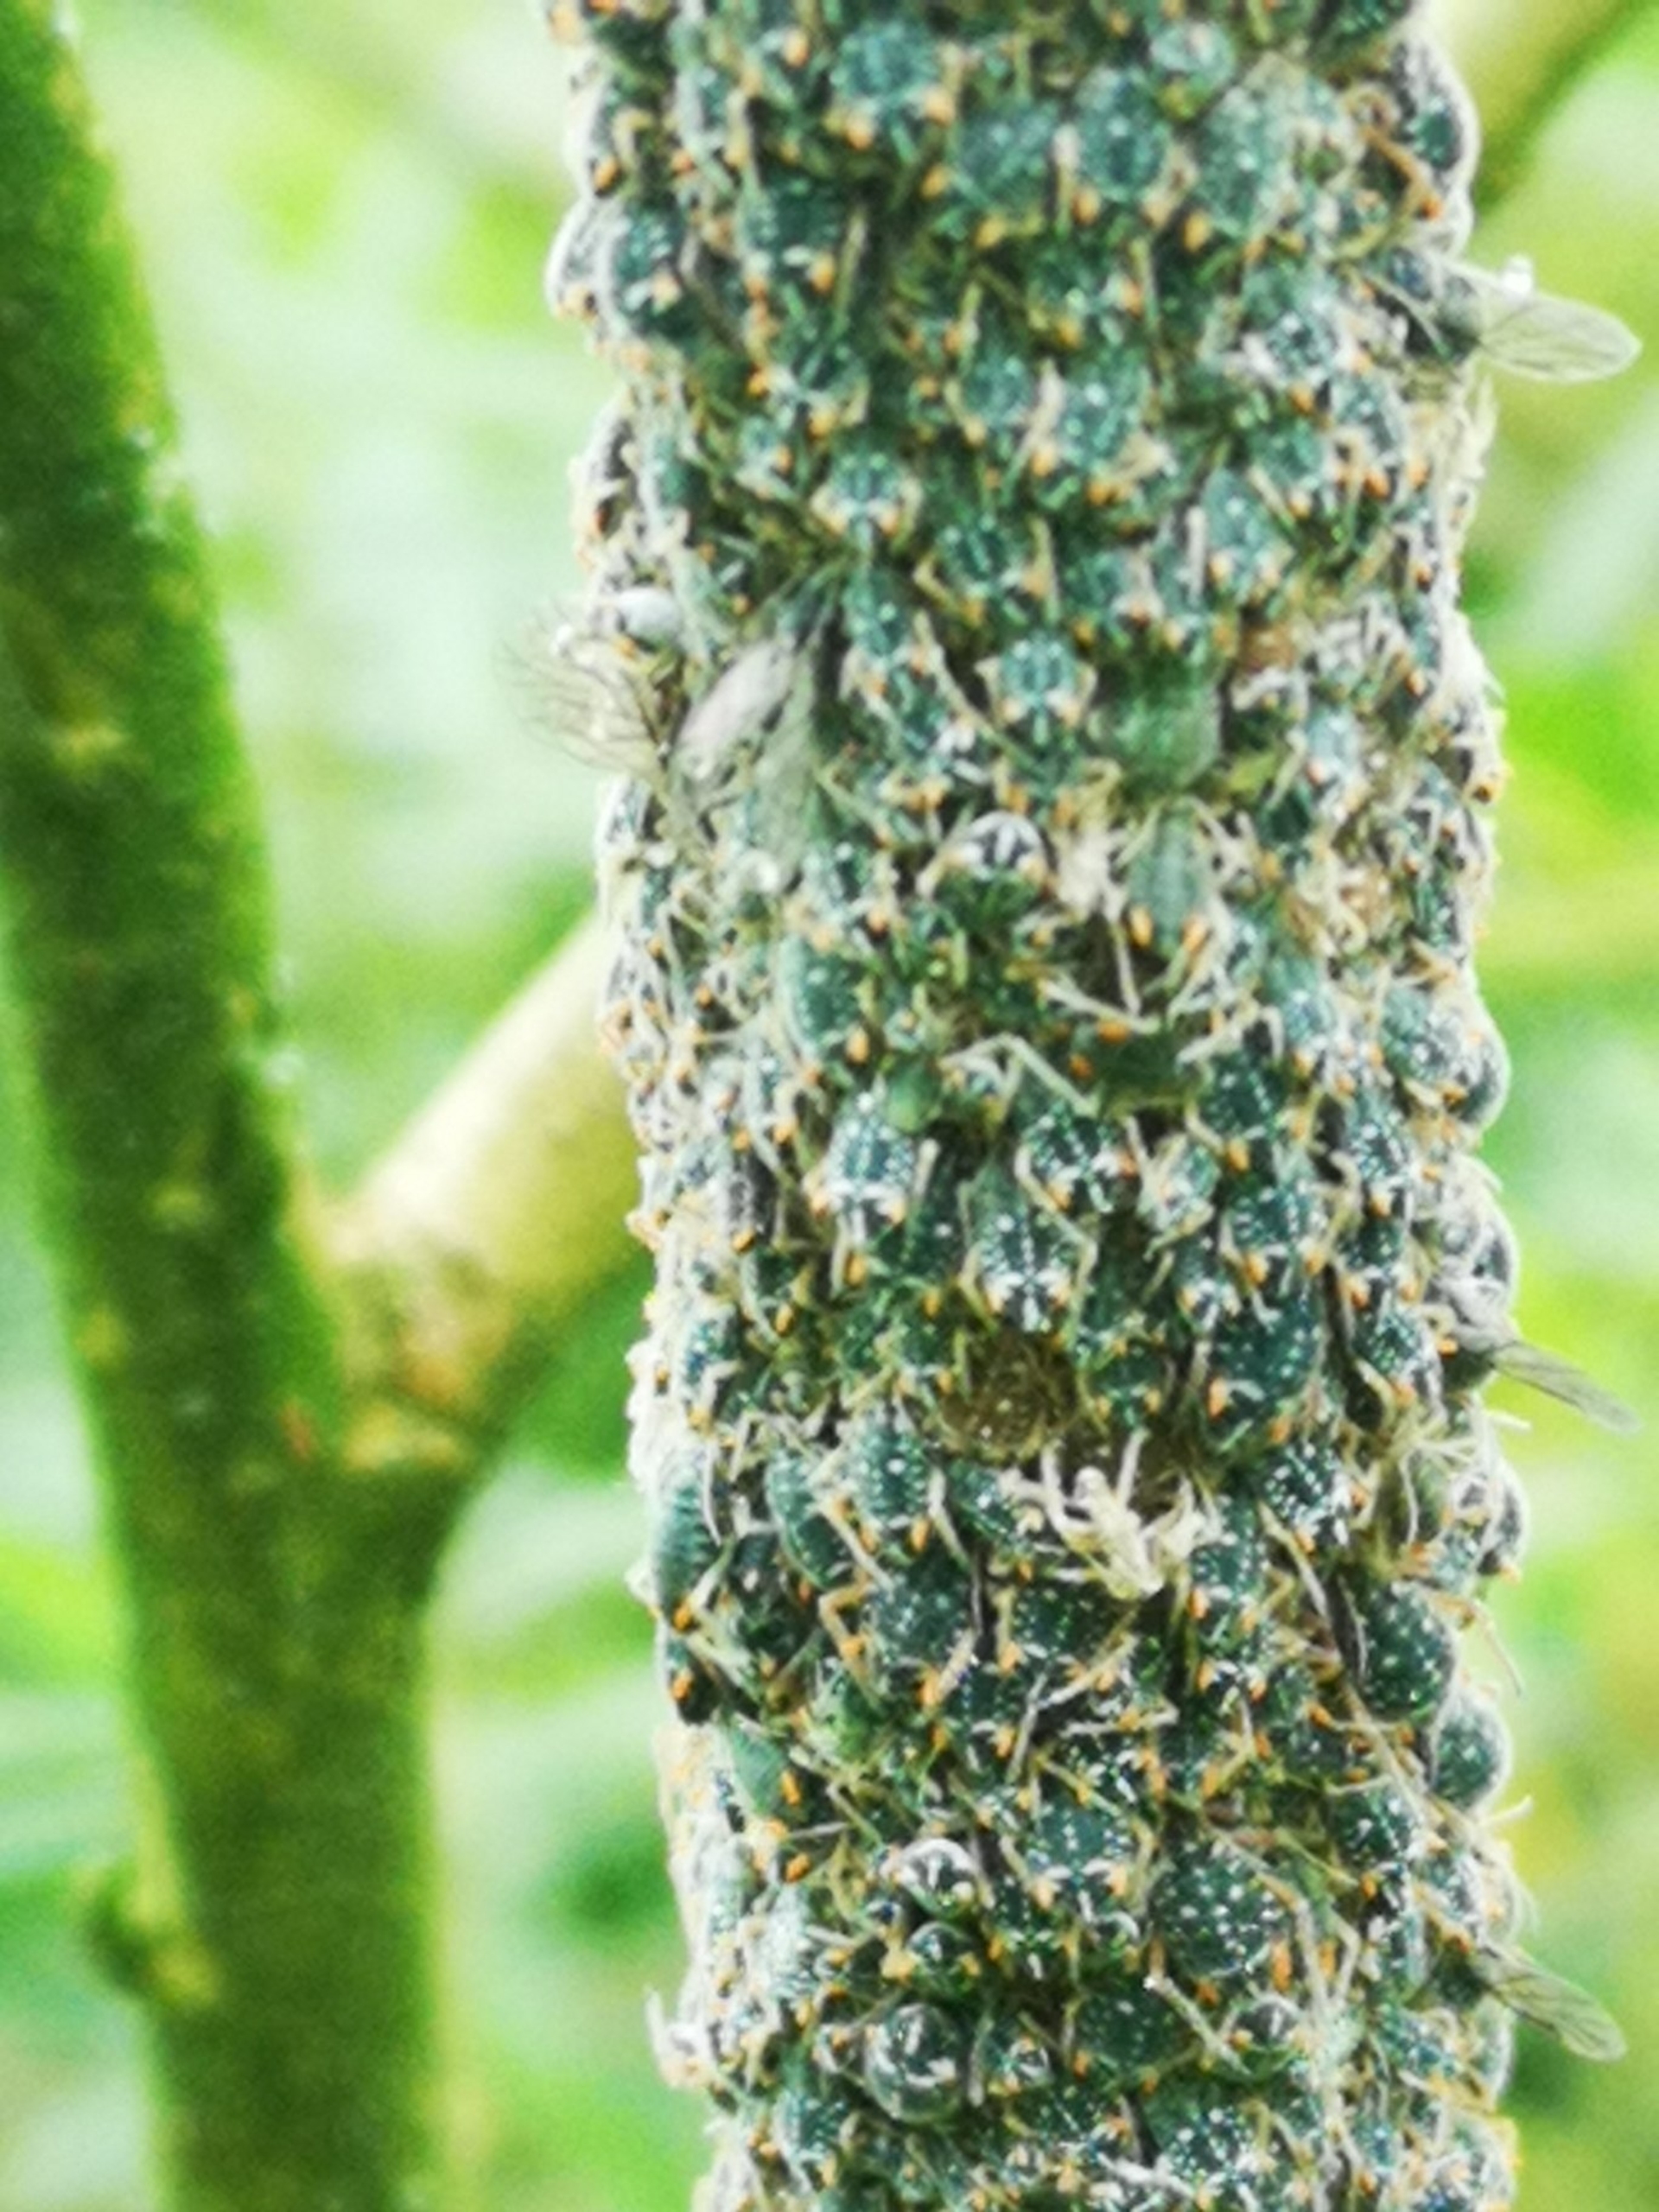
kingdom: Animalia
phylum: Arthropoda
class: Insecta
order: Hemiptera
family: Aphididae
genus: Pterocomma
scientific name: Pterocomma salicis
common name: Sort pilegrenbladlus
